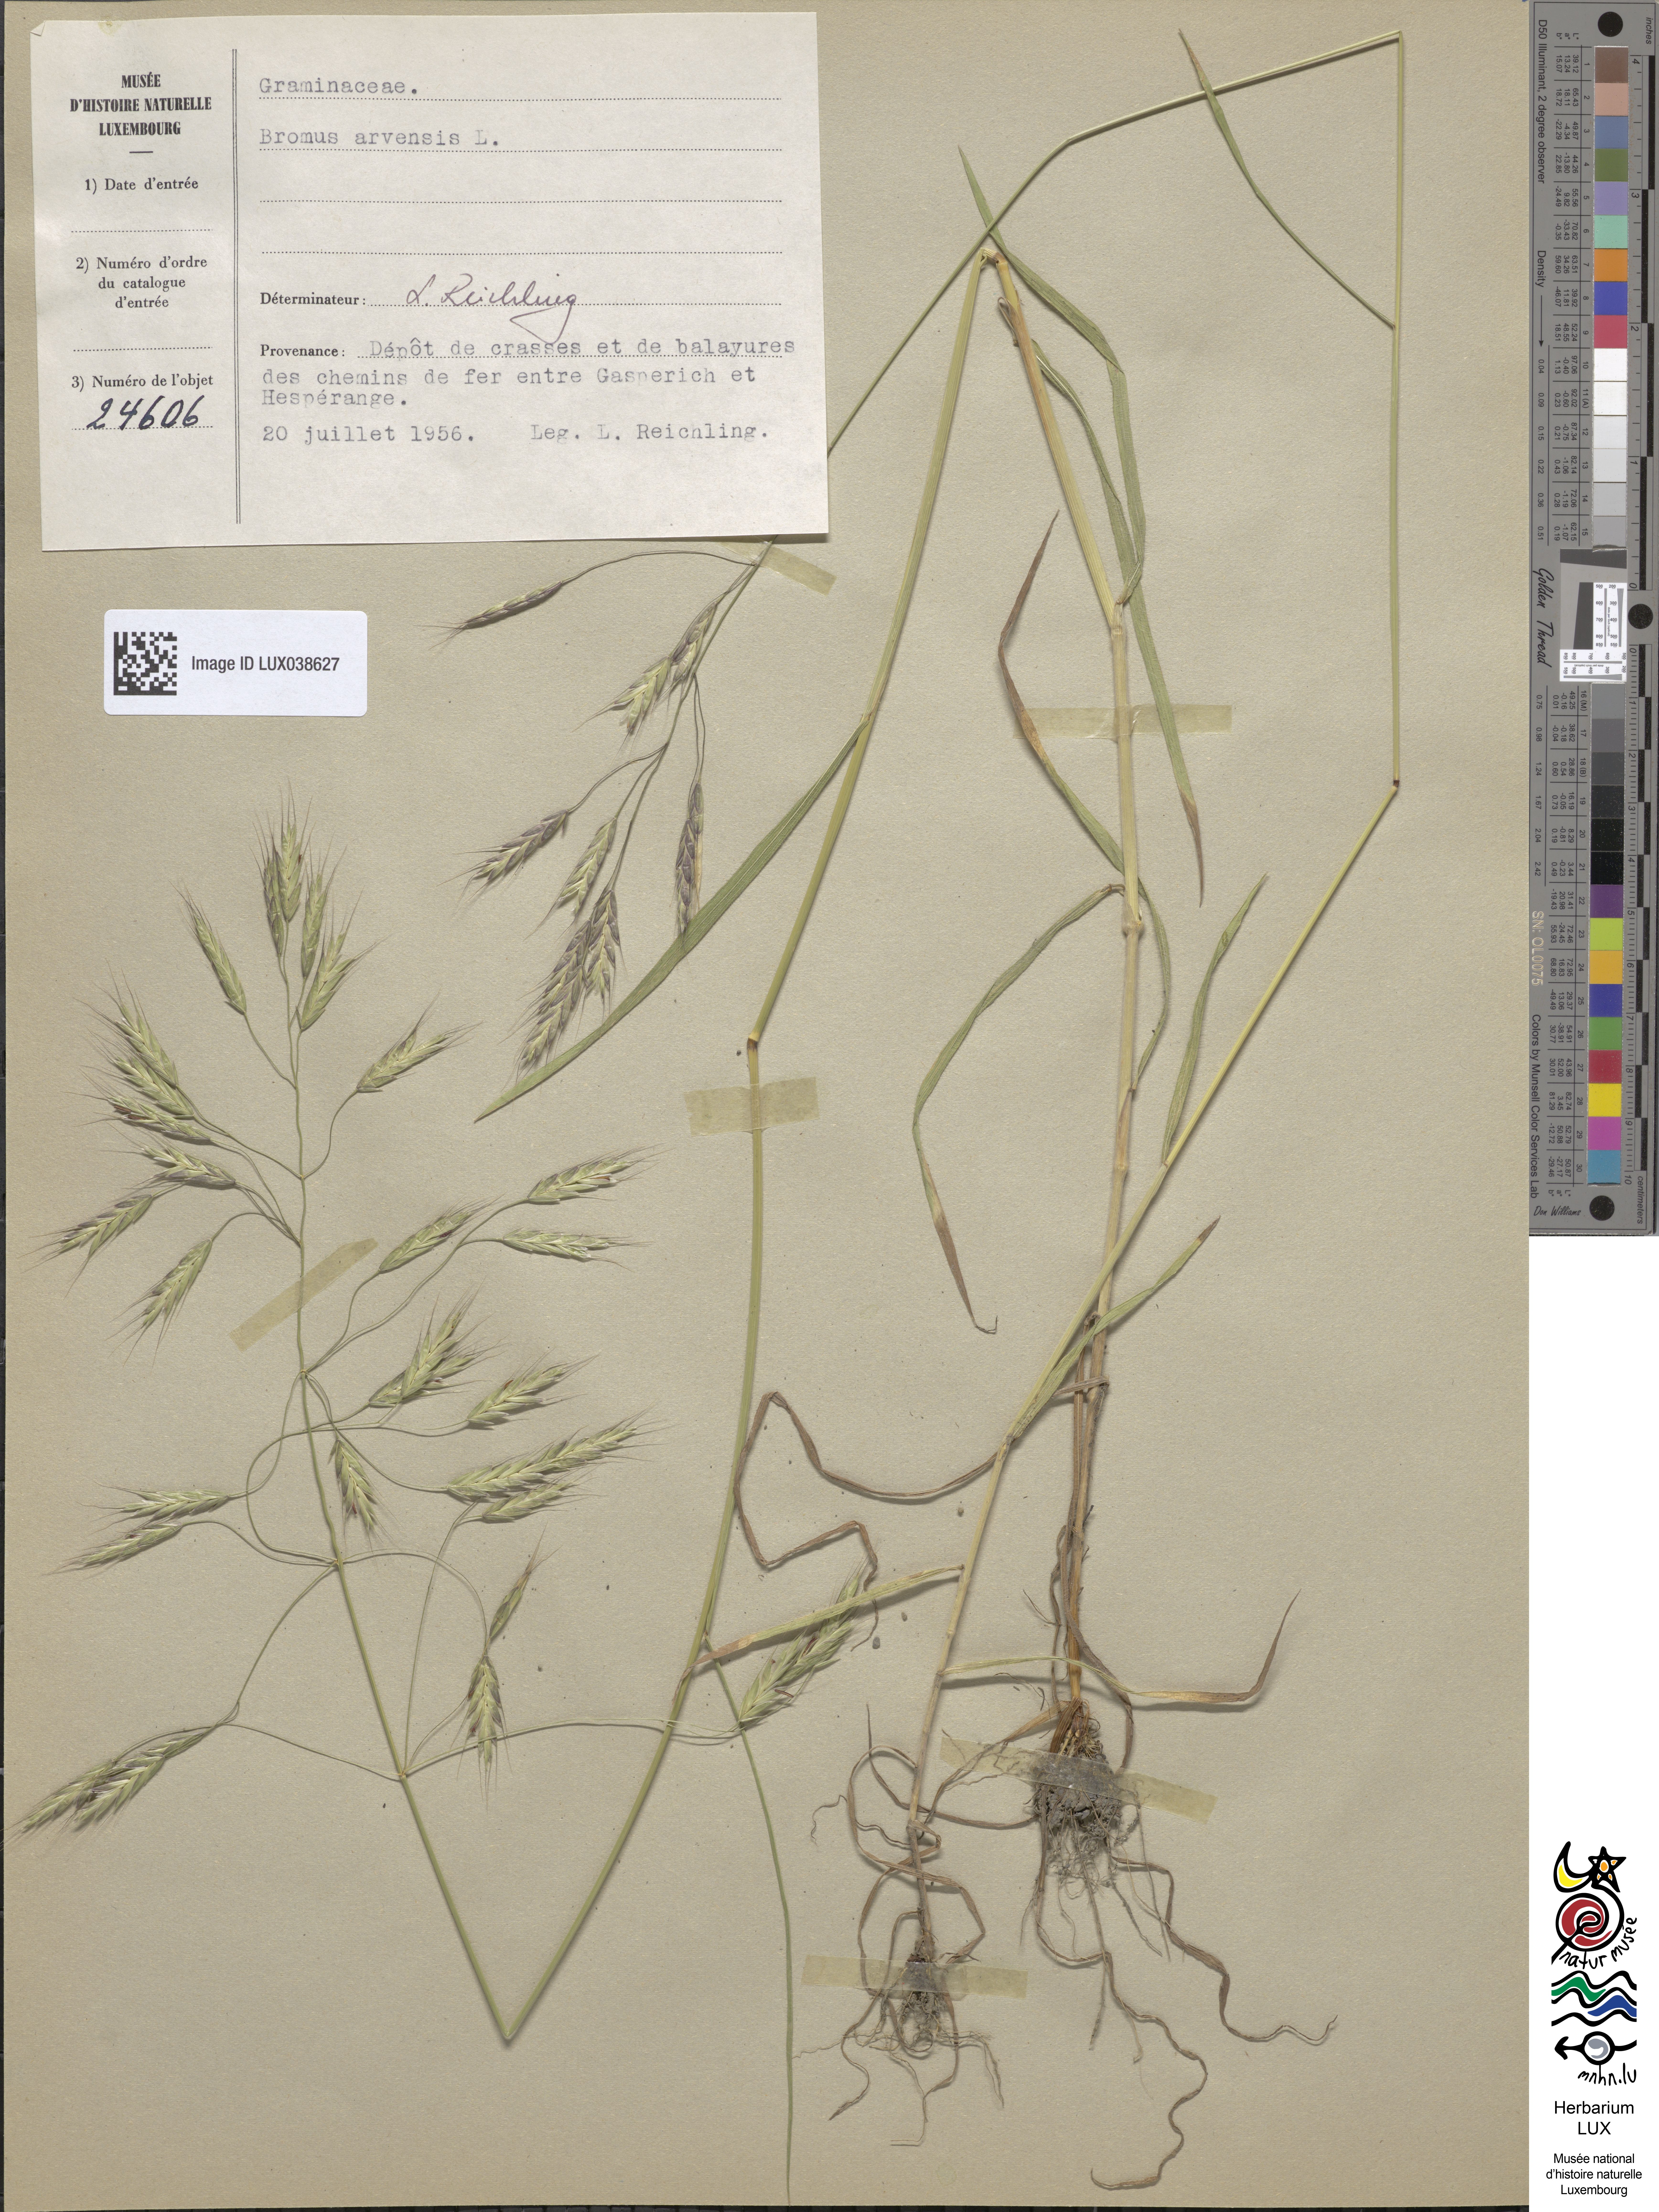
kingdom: Plantae
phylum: Tracheophyta
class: Liliopsida
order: Poales
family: Poaceae
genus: Bromus
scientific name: Bromus arvensis
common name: Field brome
